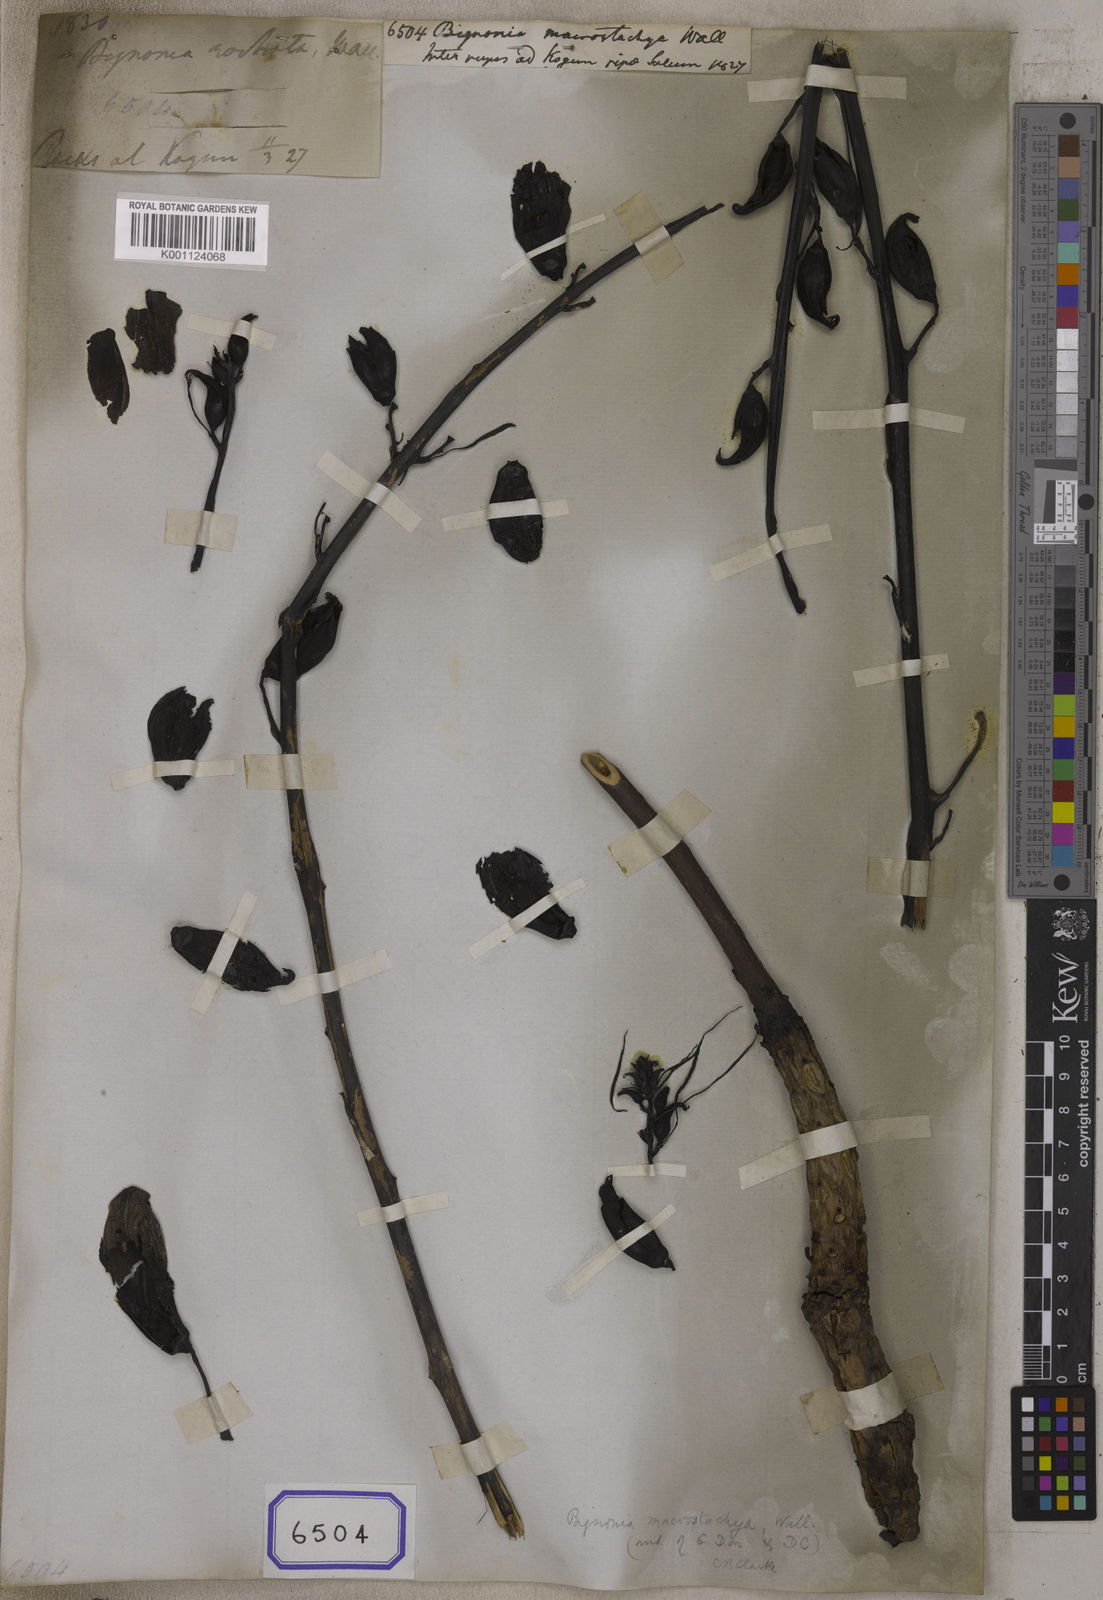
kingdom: Plantae
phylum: Tracheophyta
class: Magnoliopsida
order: Lamiales
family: Bignoniaceae
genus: Bignonia
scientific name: Bignonia
